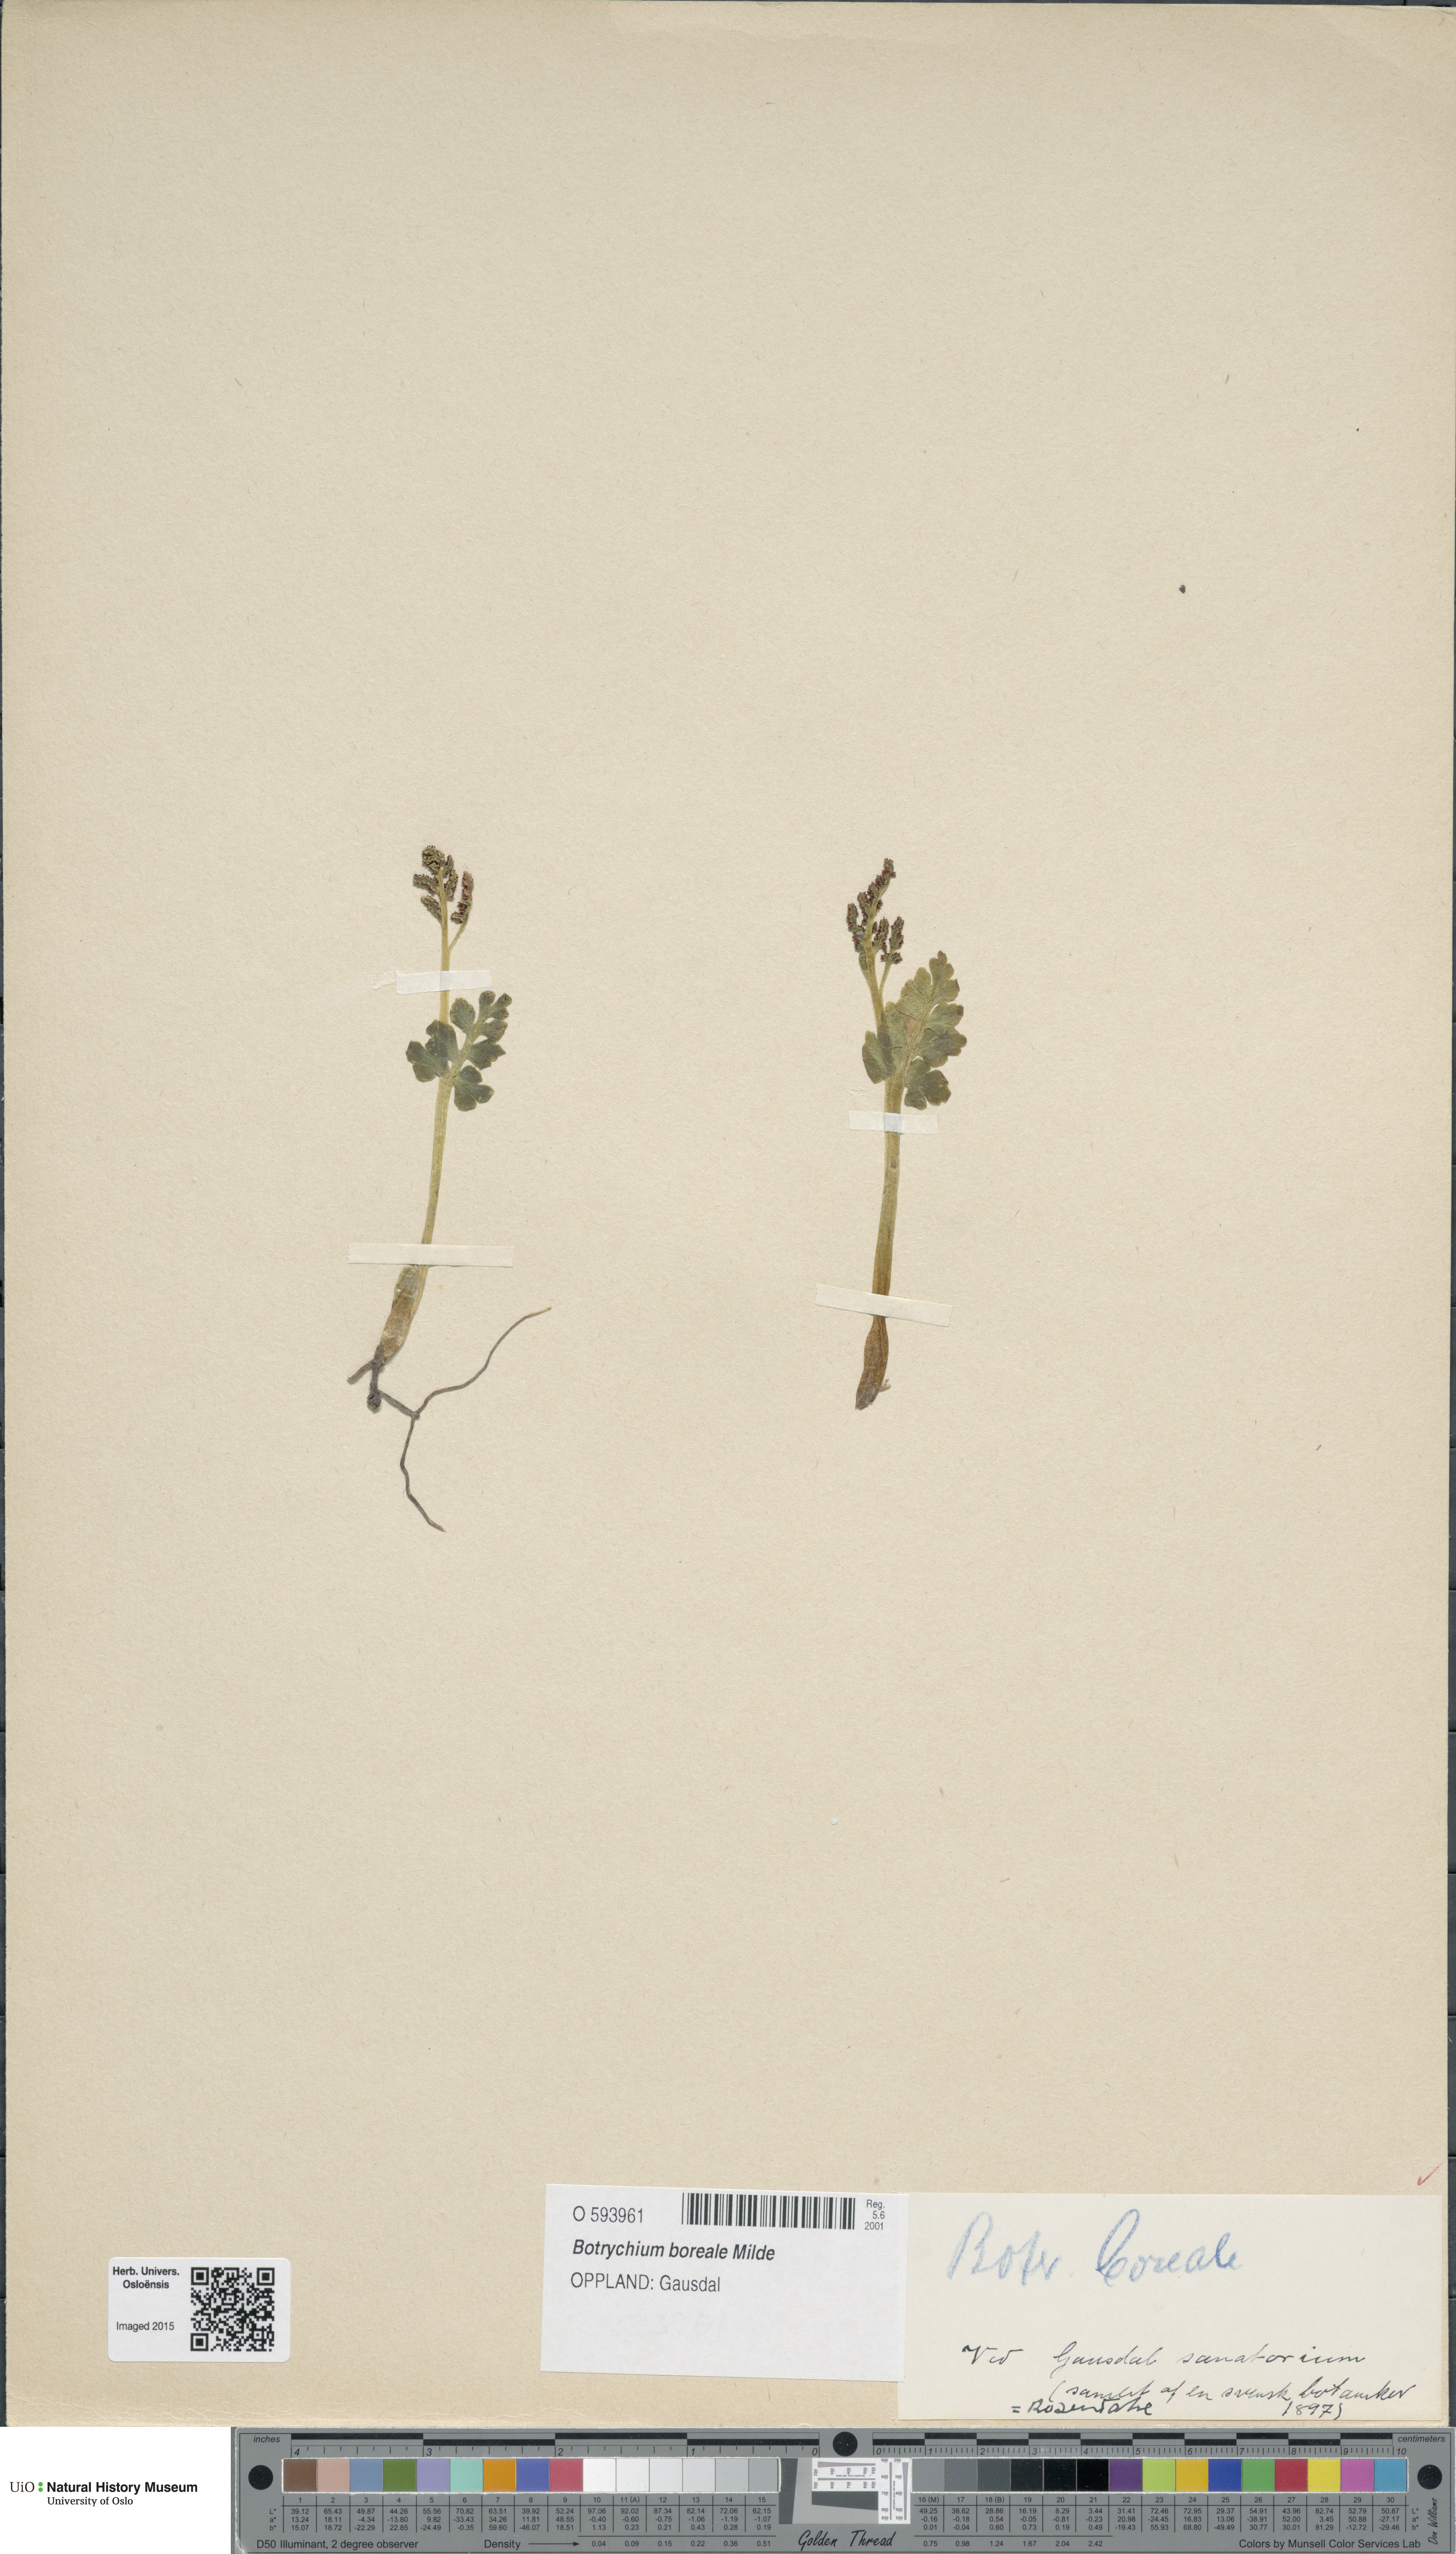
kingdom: Plantae
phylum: Tracheophyta
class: Polypodiopsida
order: Ophioglossales
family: Ophioglossaceae
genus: Botrychium
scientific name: Botrychium boreale
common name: Boreal moonwort
